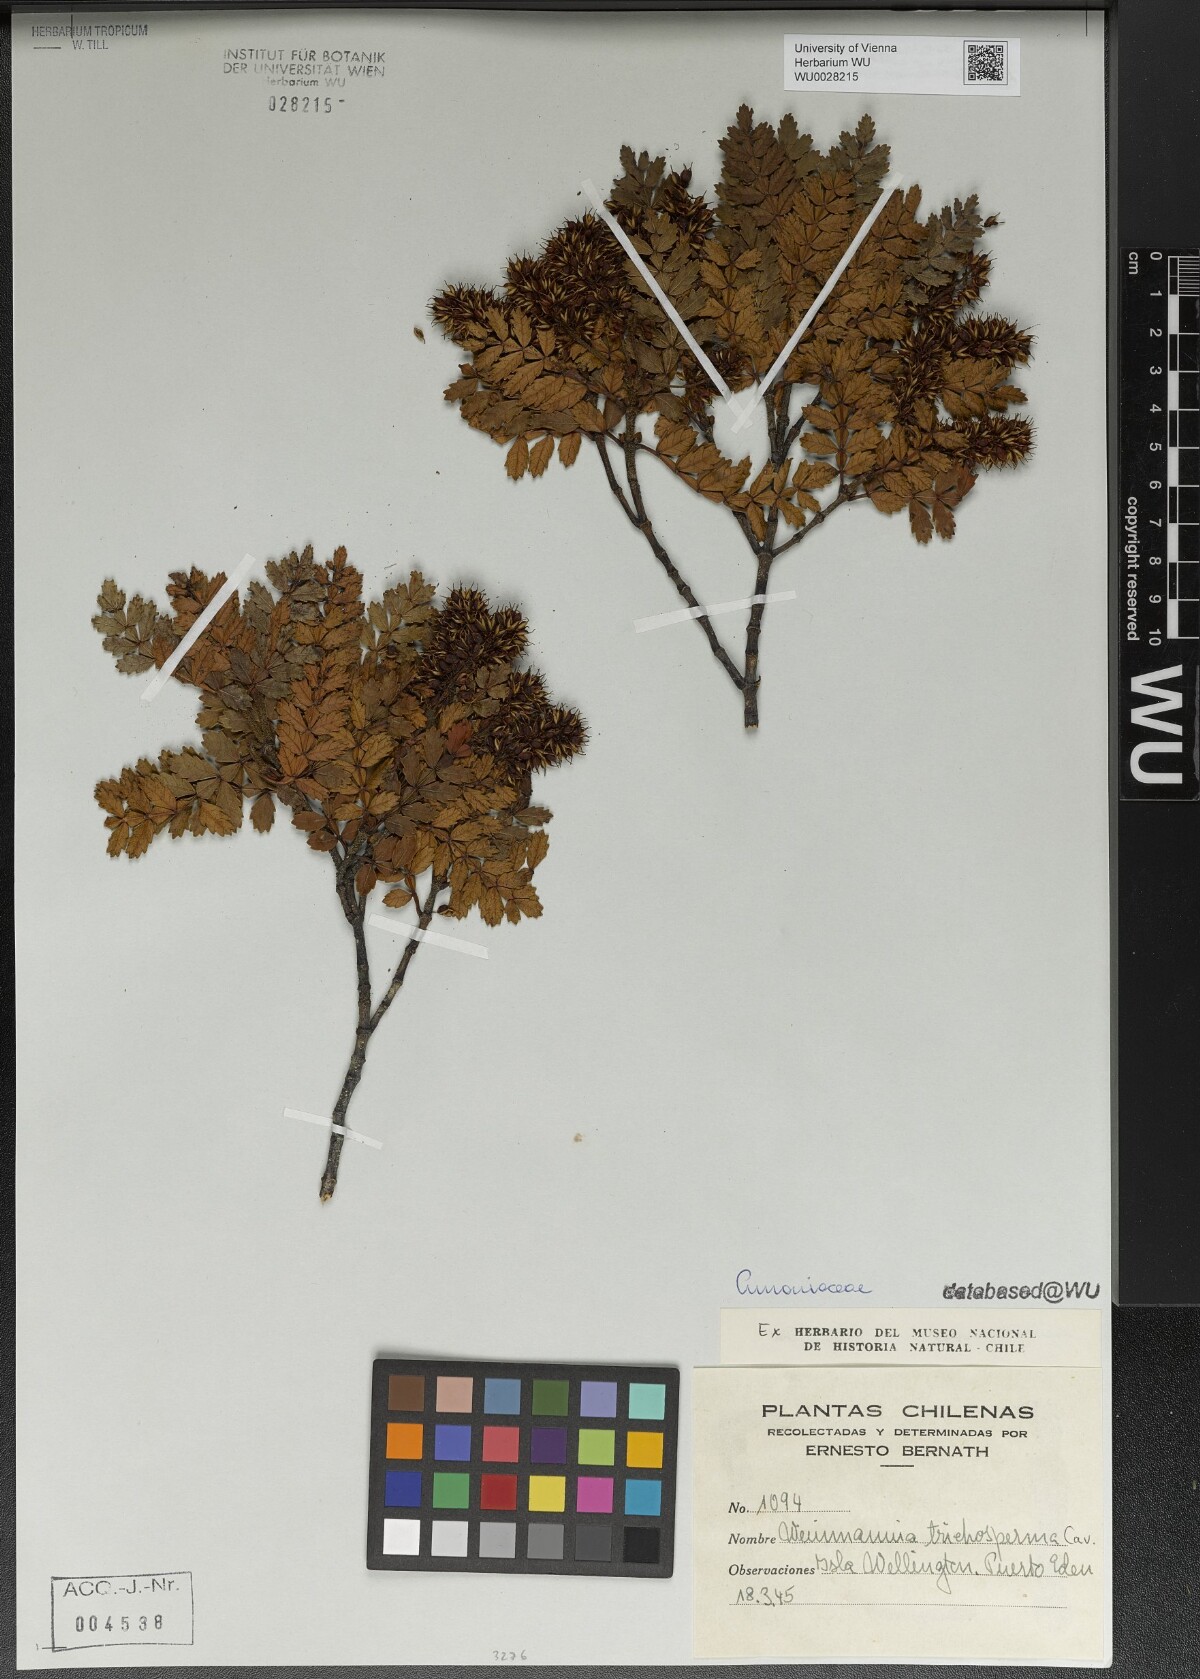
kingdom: Plantae
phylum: Tracheophyta
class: Magnoliopsida
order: Oxalidales
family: Cunoniaceae
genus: Weinmannia
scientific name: Weinmannia trichosperma
